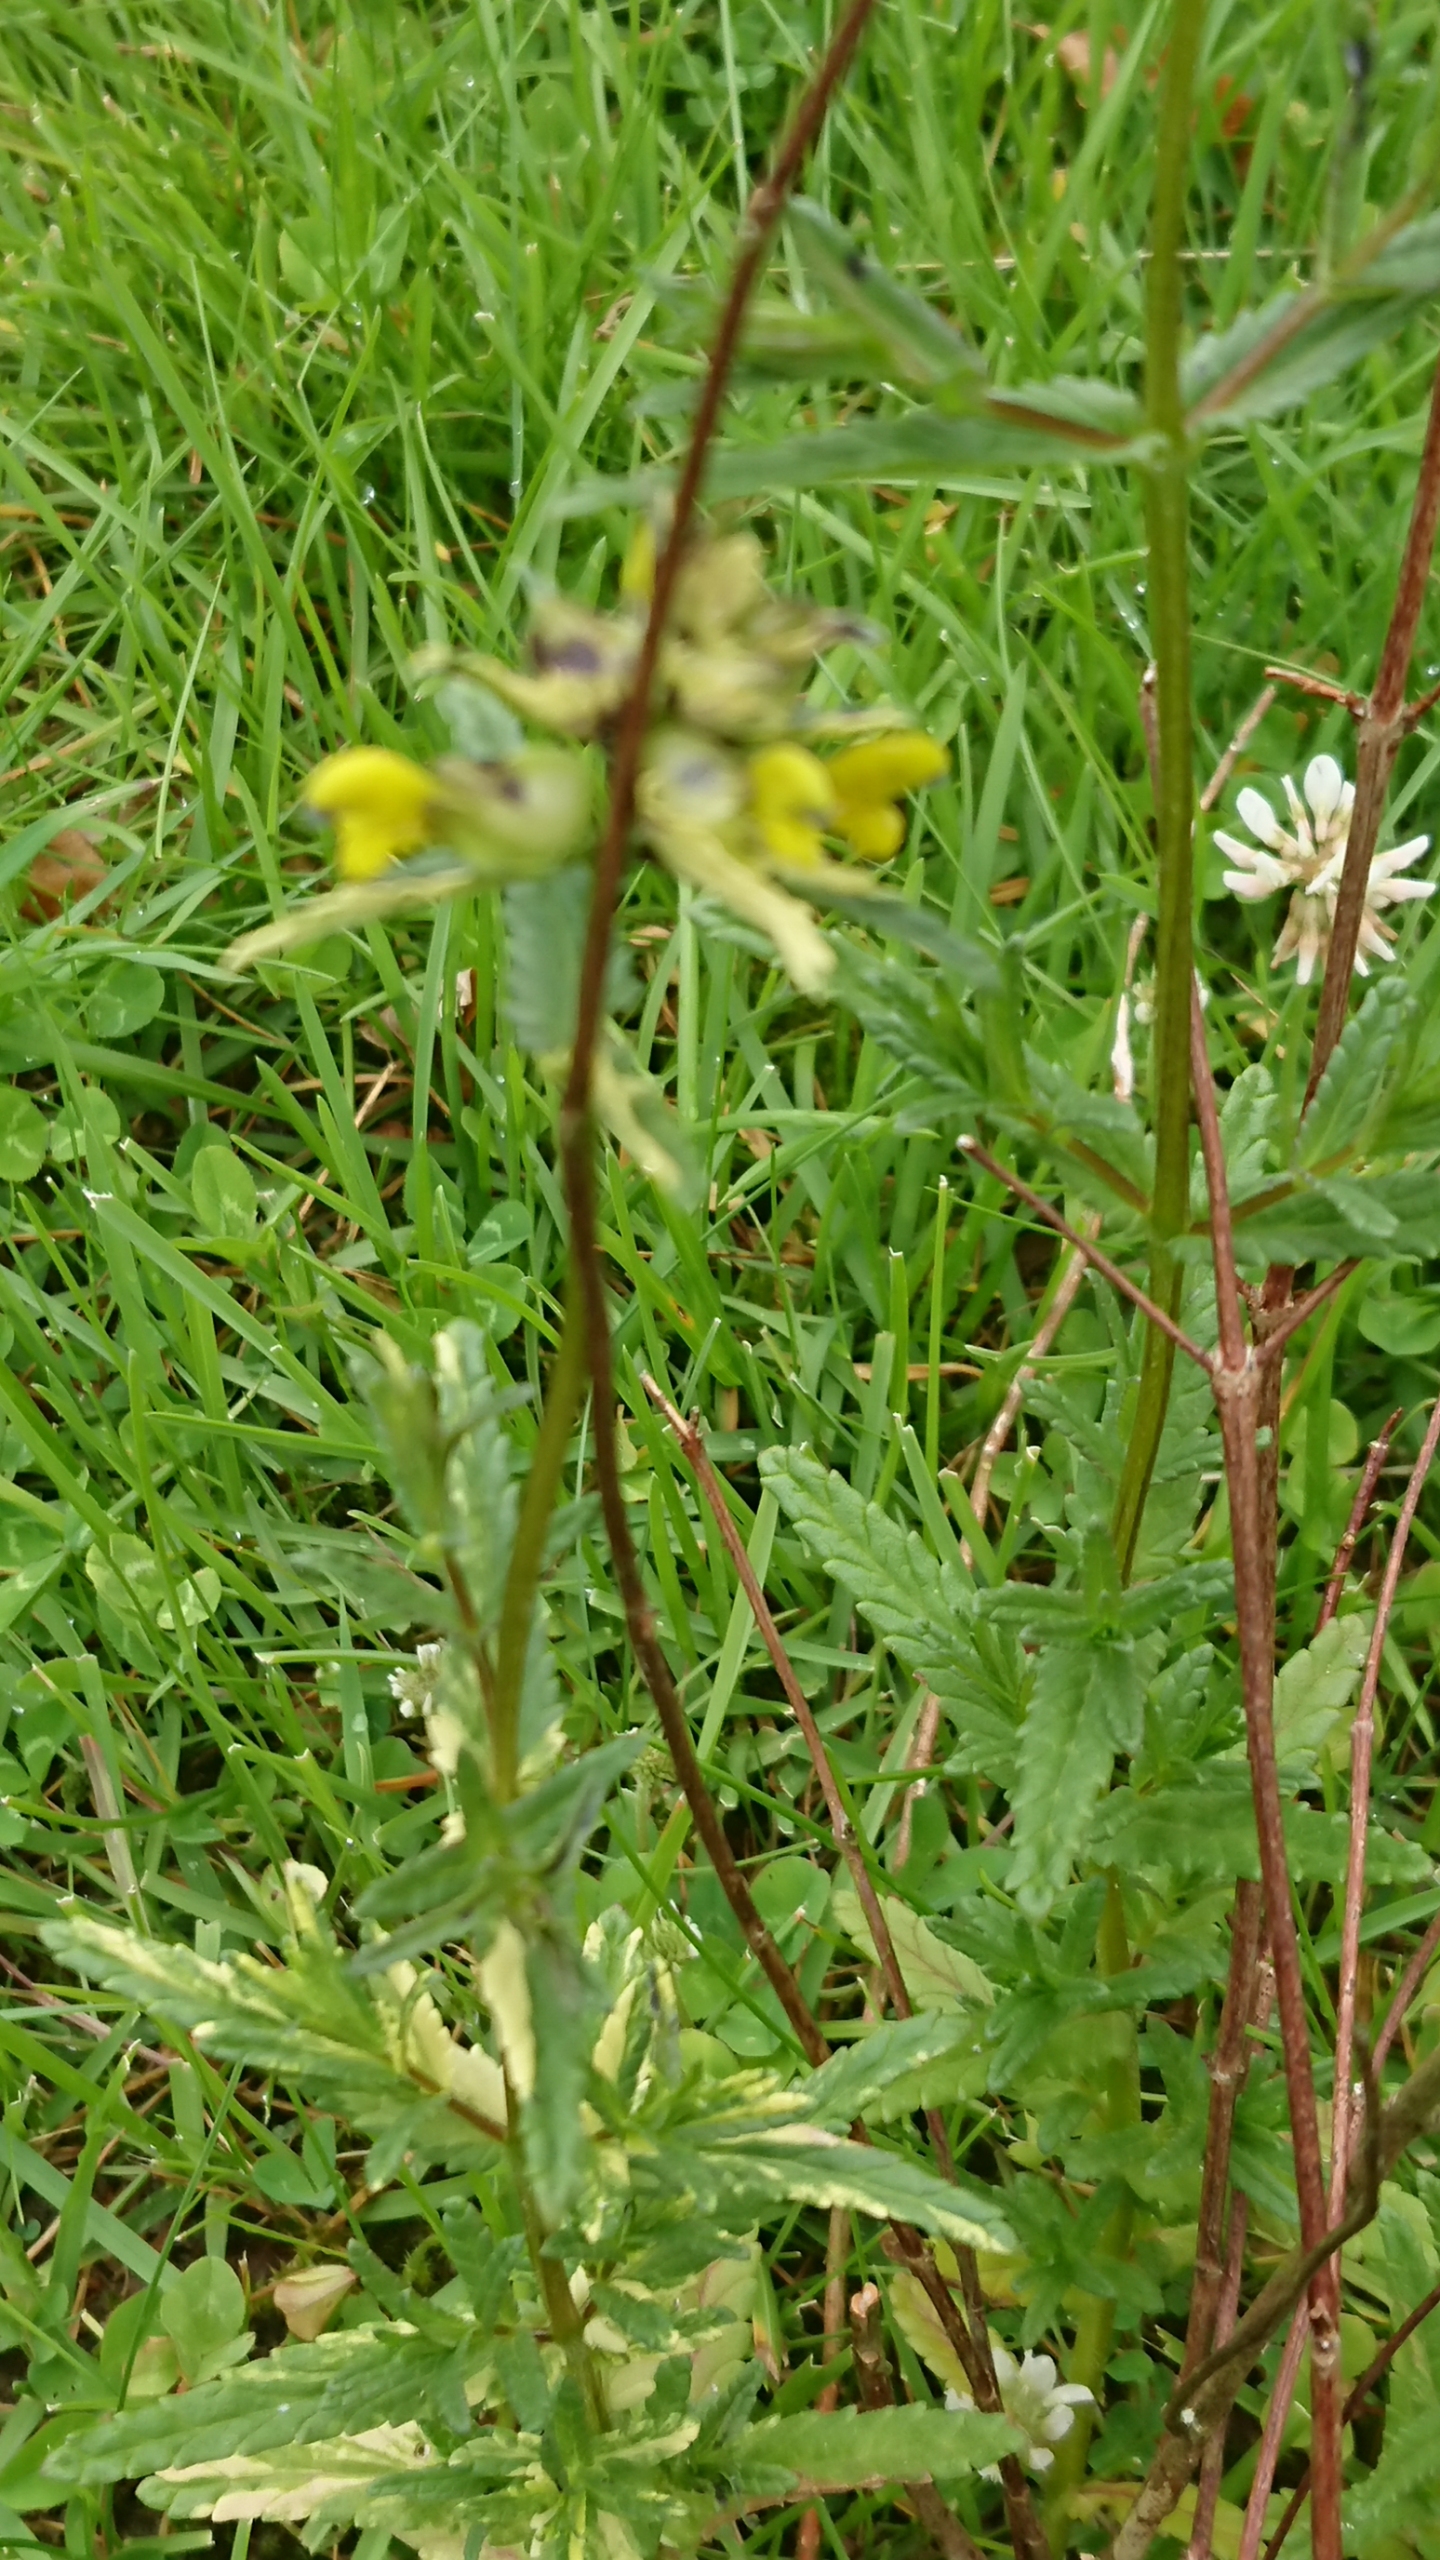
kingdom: Plantae
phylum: Tracheophyta
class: Magnoliopsida
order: Lamiales
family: Orobanchaceae
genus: Rhinanthus
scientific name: Rhinanthus minor
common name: Liden skjaller
